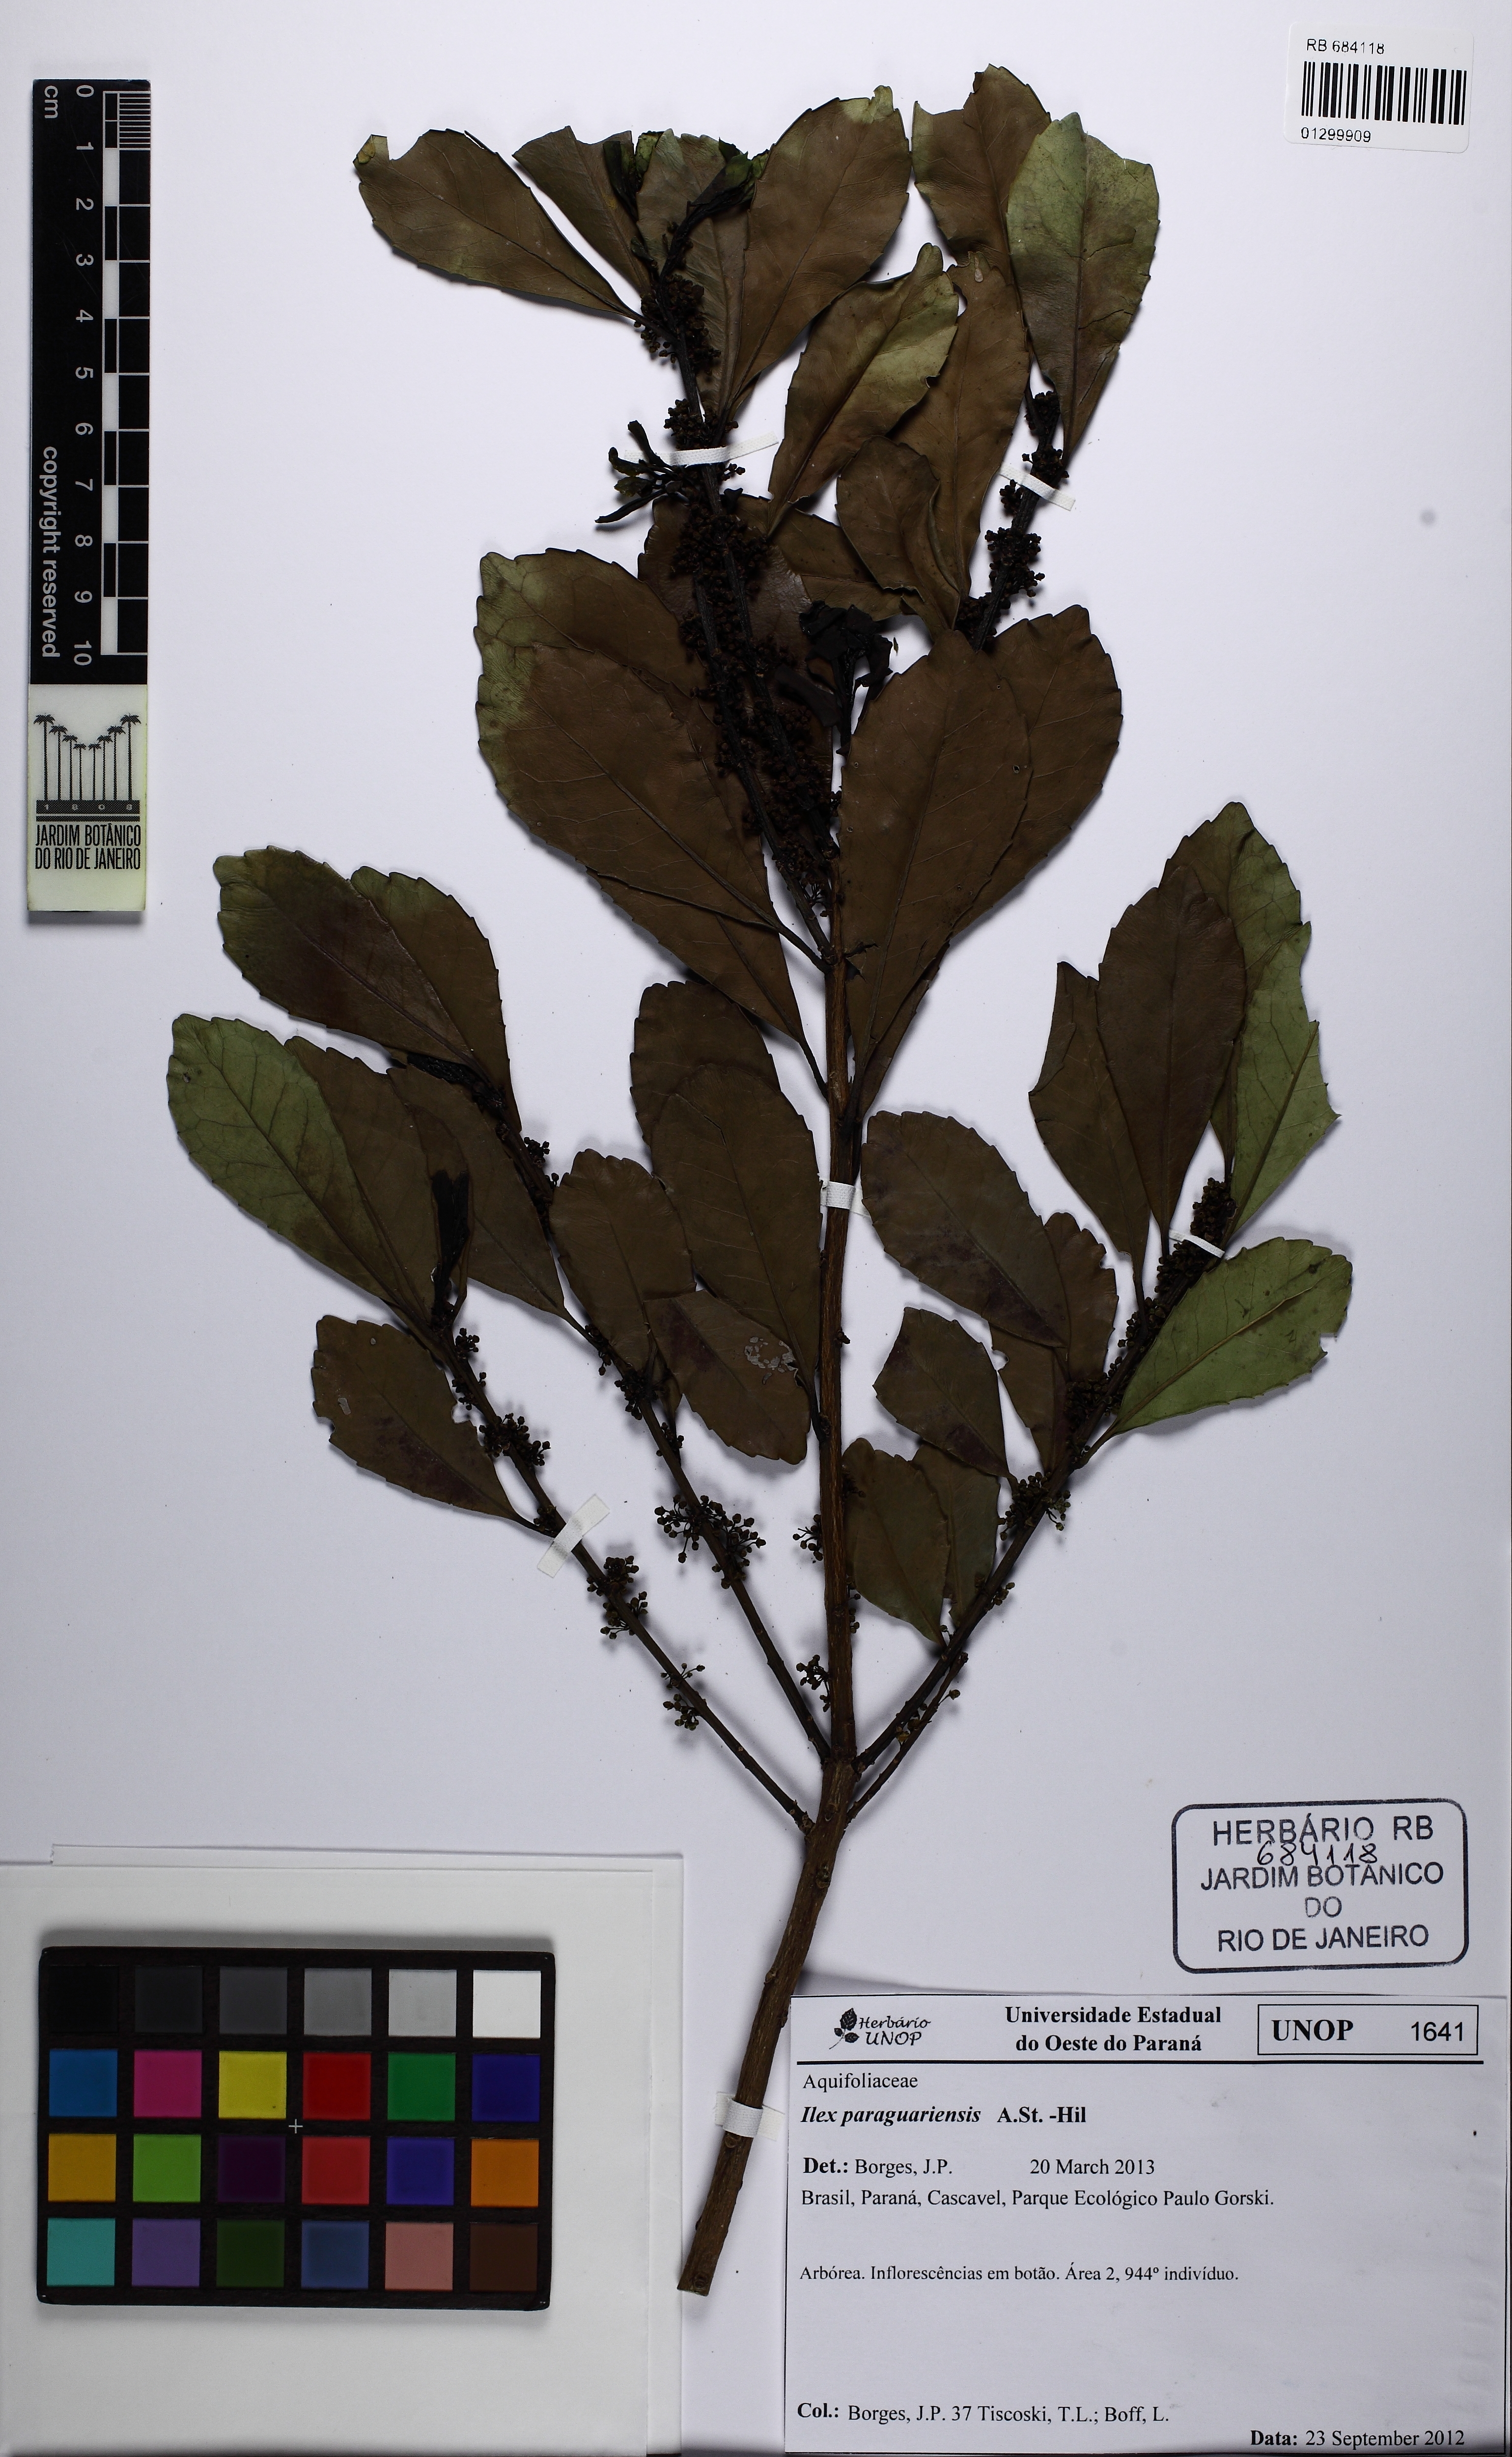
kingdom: Plantae
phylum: Tracheophyta
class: Magnoliopsida
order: Aquifoliales
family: Aquifoliaceae
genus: Ilex
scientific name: Ilex paraguariensis
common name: Paraguay tea
